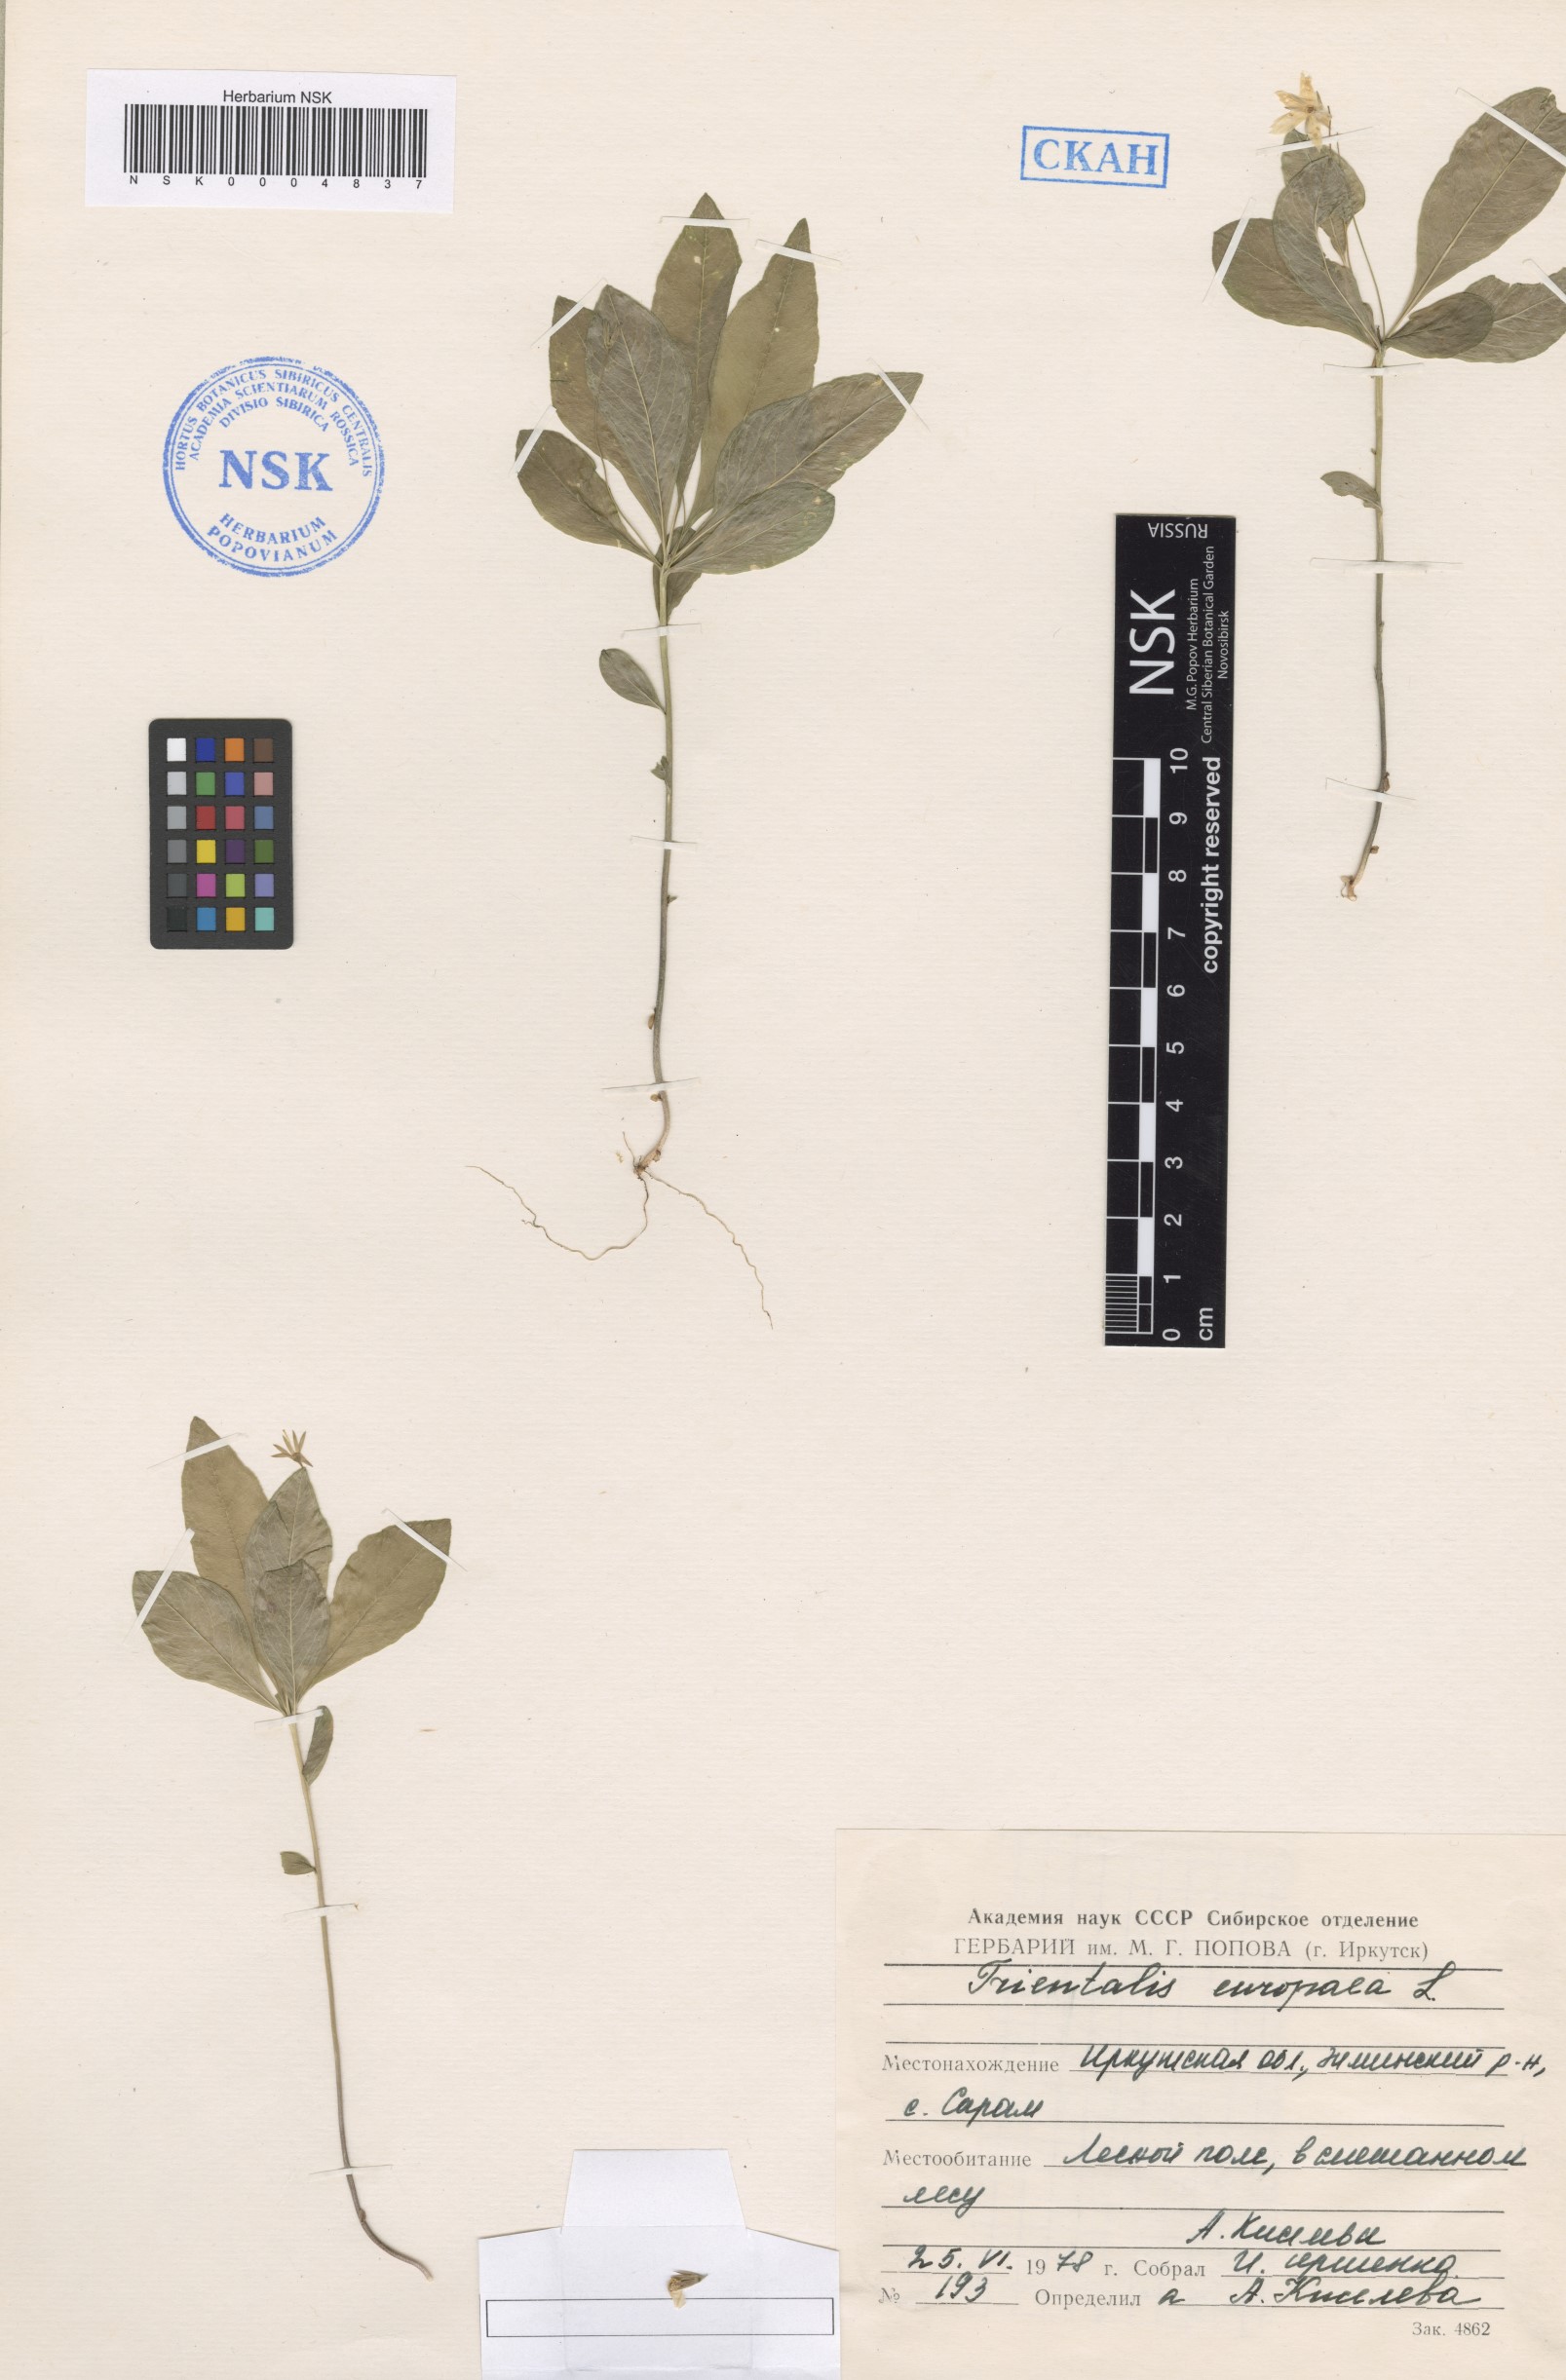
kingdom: Plantae
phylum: Tracheophyta
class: Magnoliopsida
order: Ericales
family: Primulaceae
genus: Lysimachia
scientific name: Lysimachia europaea
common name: Arctic starflower
